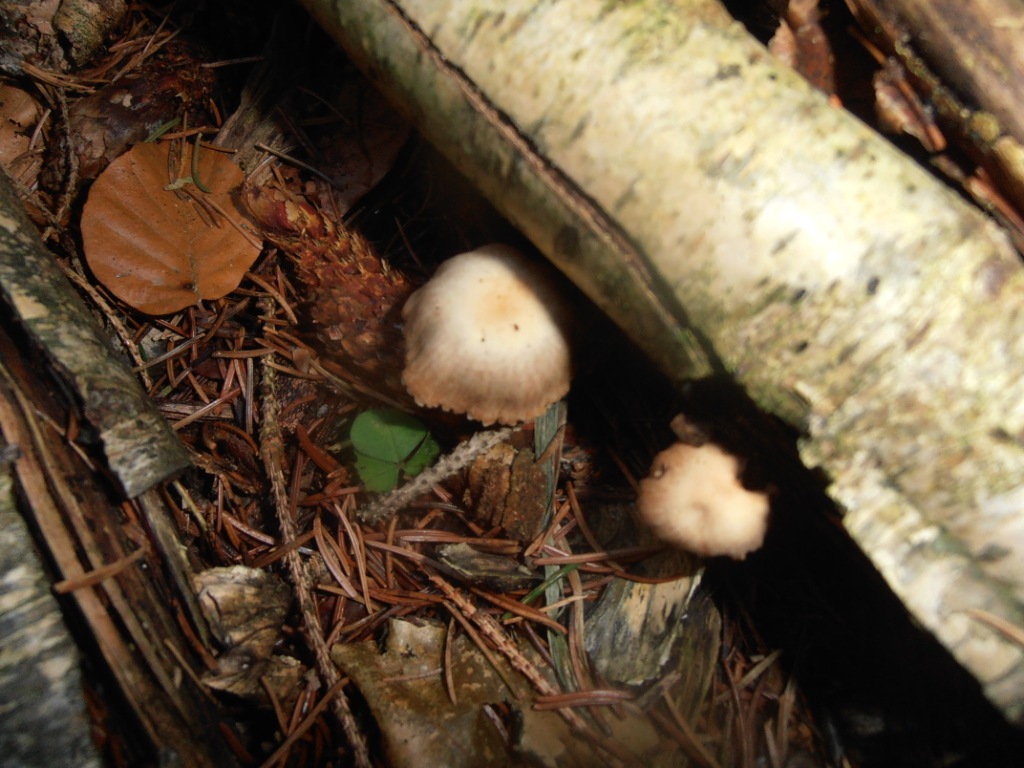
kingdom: Fungi
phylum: Basidiomycota
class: Agaricomycetes
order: Agaricales
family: Tubariaceae
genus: Tubaria
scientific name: Tubaria furfuracea
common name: kliddet fnughat
